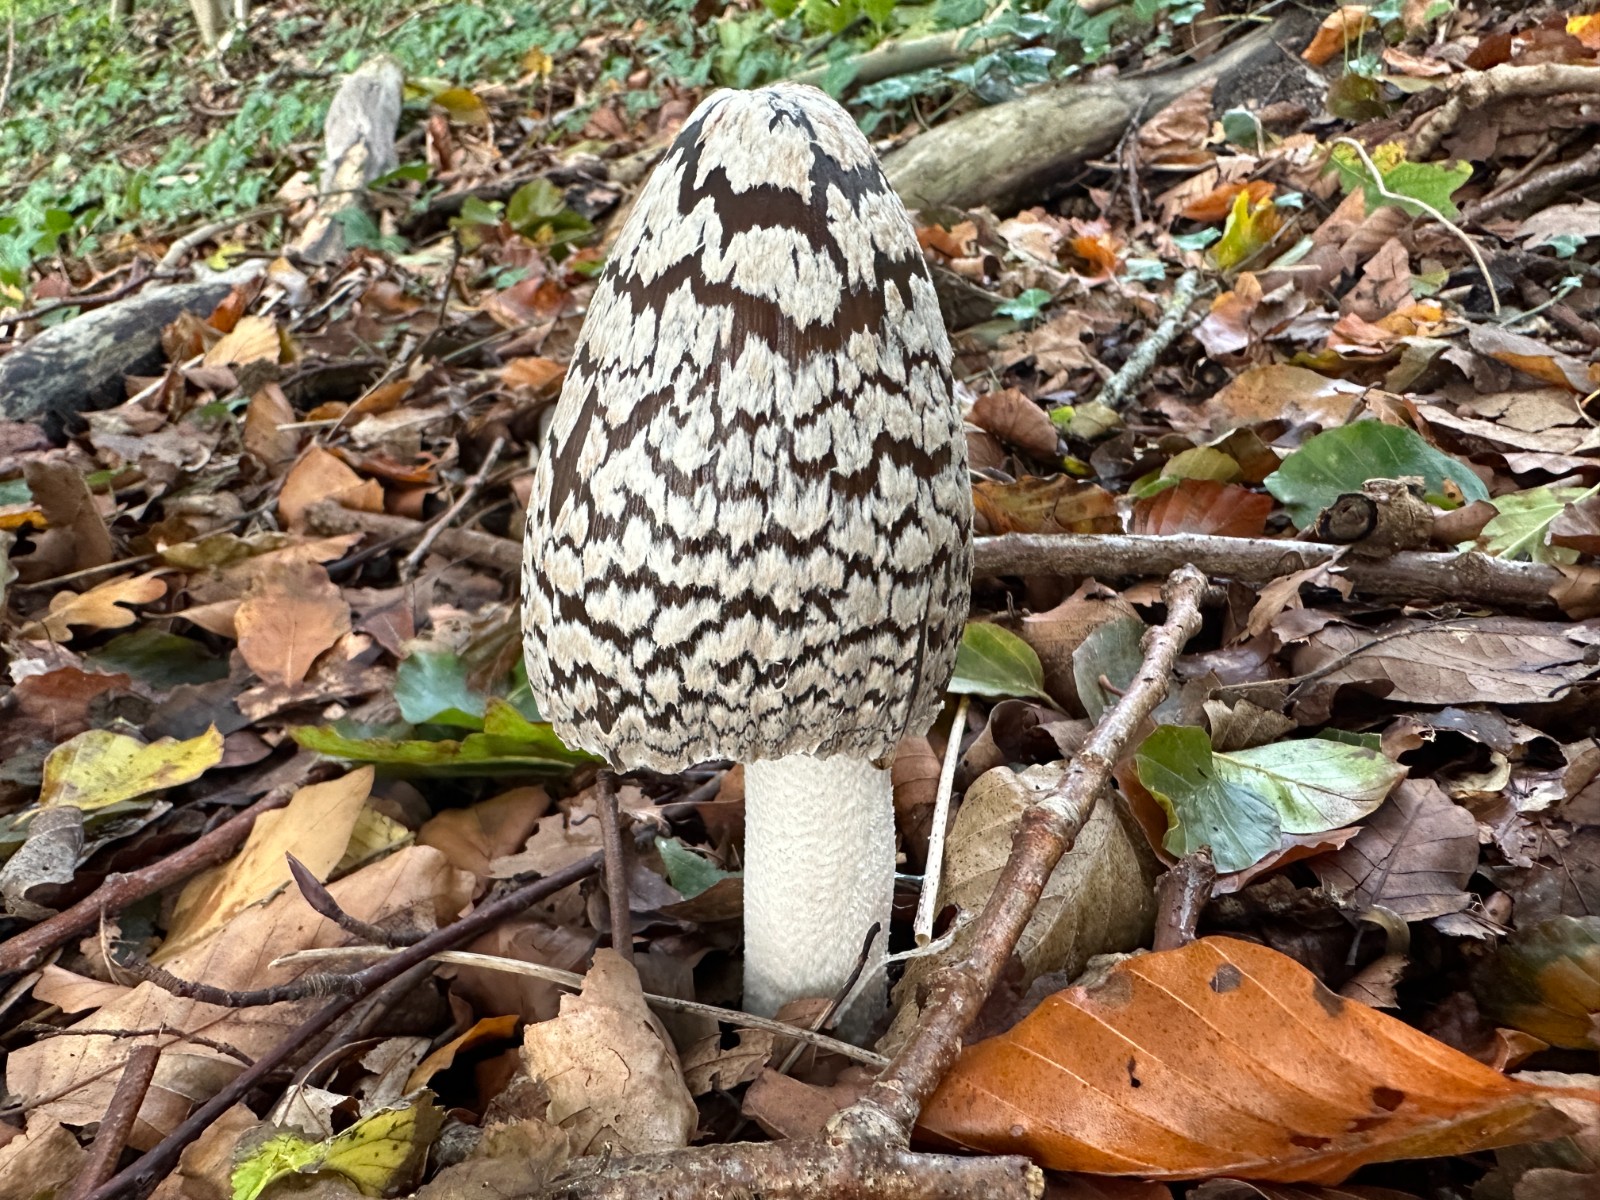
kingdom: Fungi
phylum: Basidiomycota
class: Agaricomycetes
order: Agaricales
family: Psathyrellaceae
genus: Coprinopsis
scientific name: Coprinopsis picacea
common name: skade-blækhat
